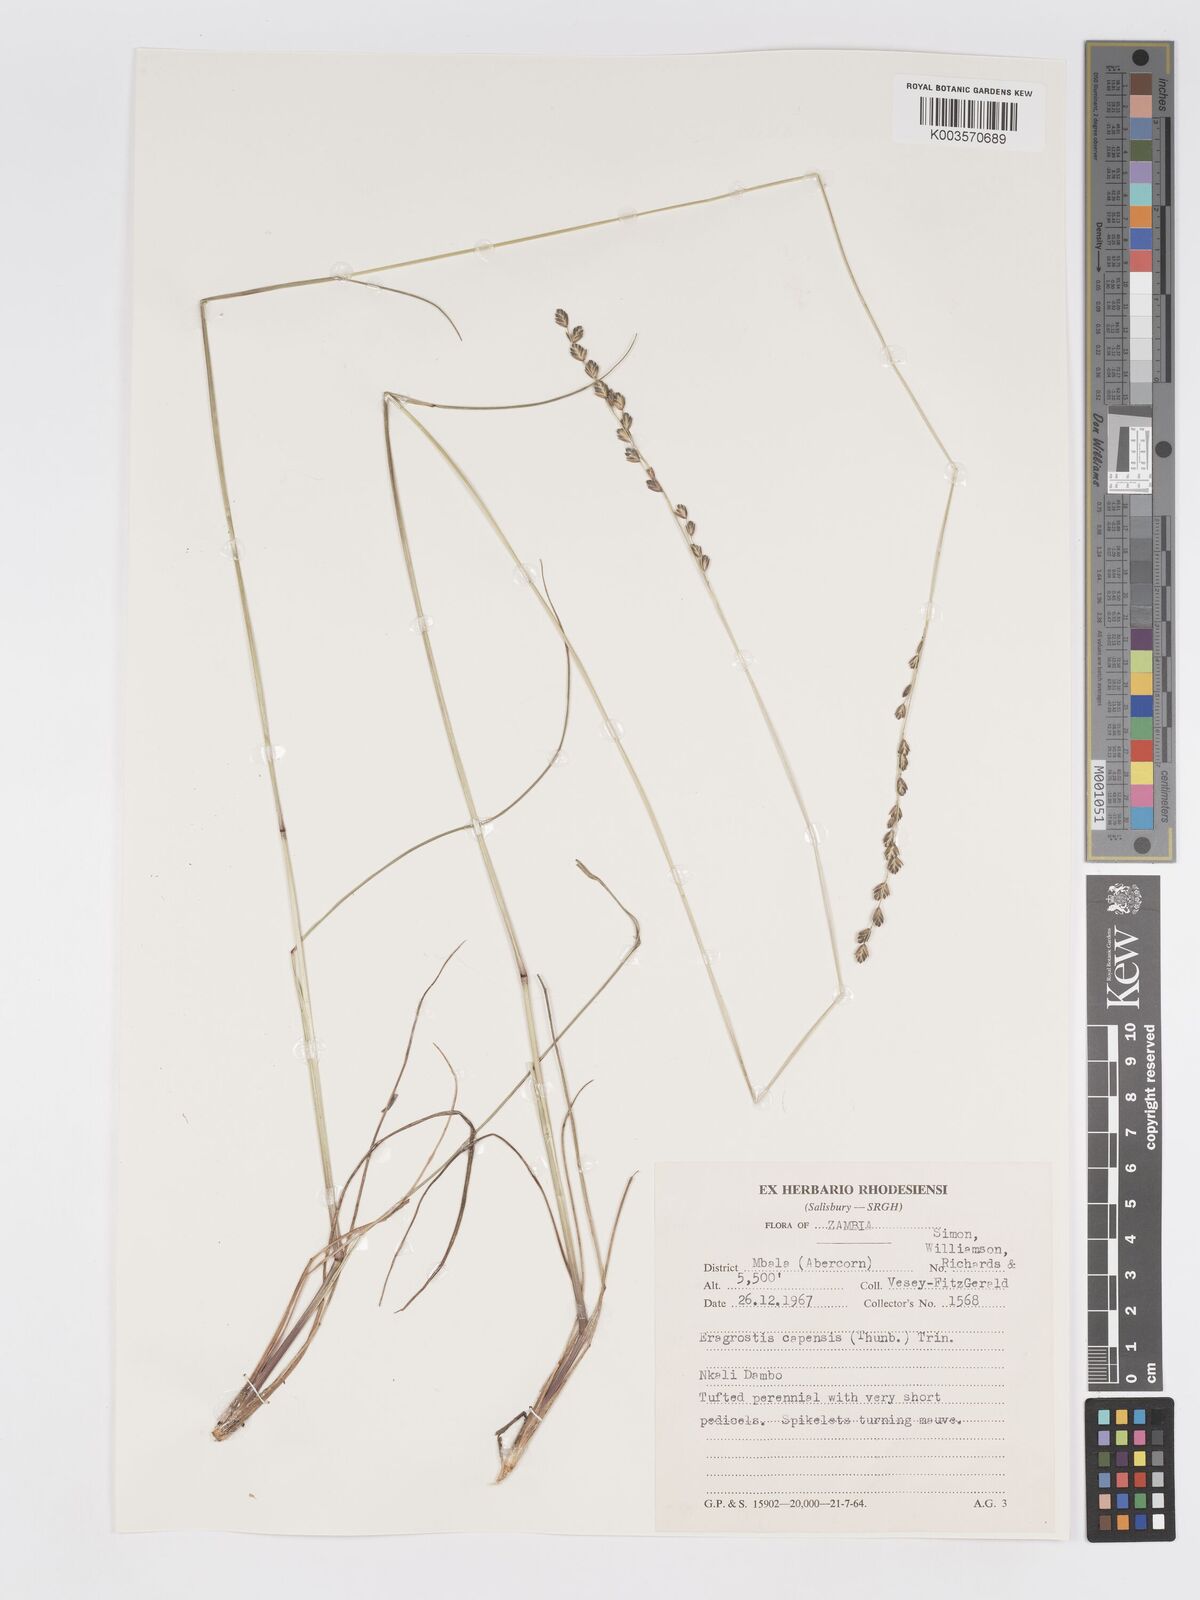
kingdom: Plantae
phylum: Tracheophyta
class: Liliopsida
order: Poales
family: Poaceae
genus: Eragrostis
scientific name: Eragrostis capensis
